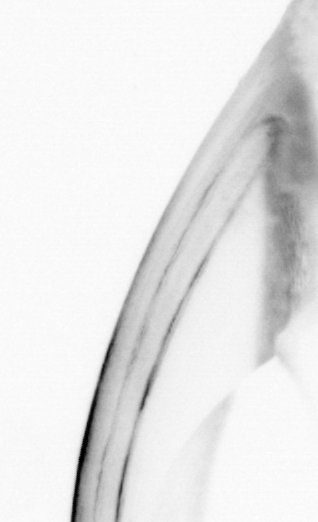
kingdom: Animalia
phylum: Chordata
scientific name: Chordata
